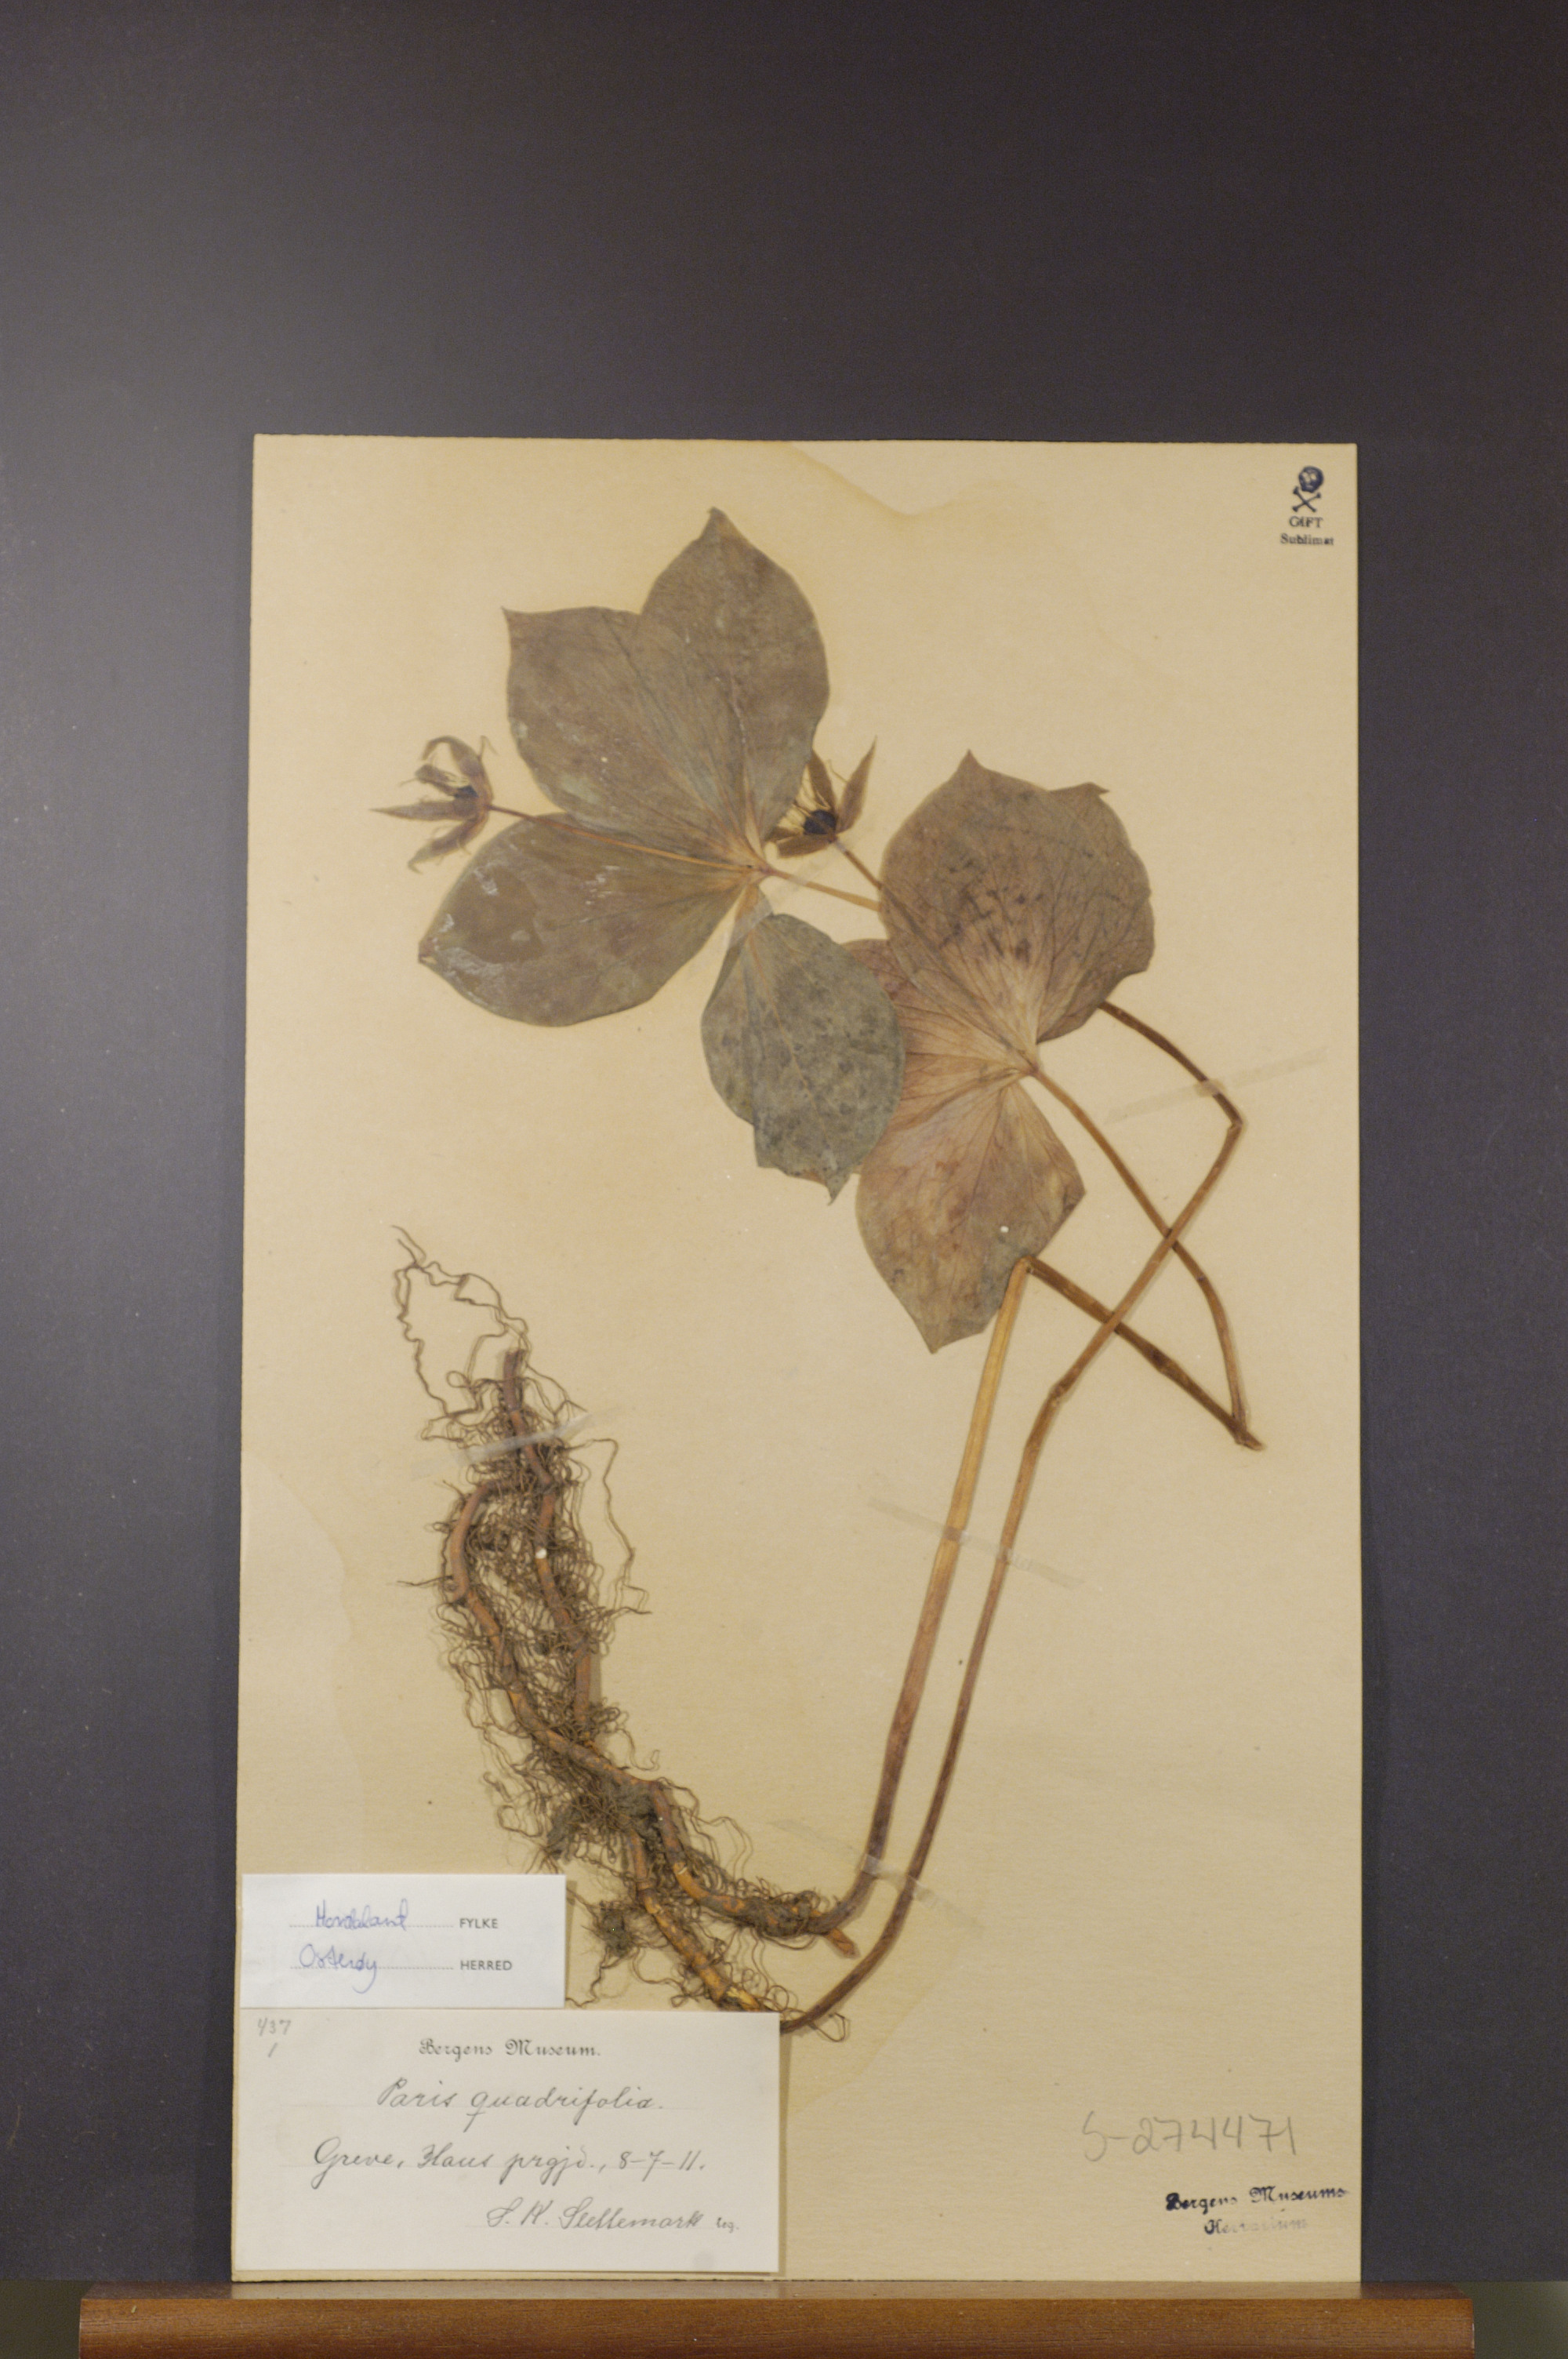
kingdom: Plantae
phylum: Tracheophyta
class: Liliopsida
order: Liliales
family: Melanthiaceae
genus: Paris
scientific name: Paris quadrifolia
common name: Herb-paris
